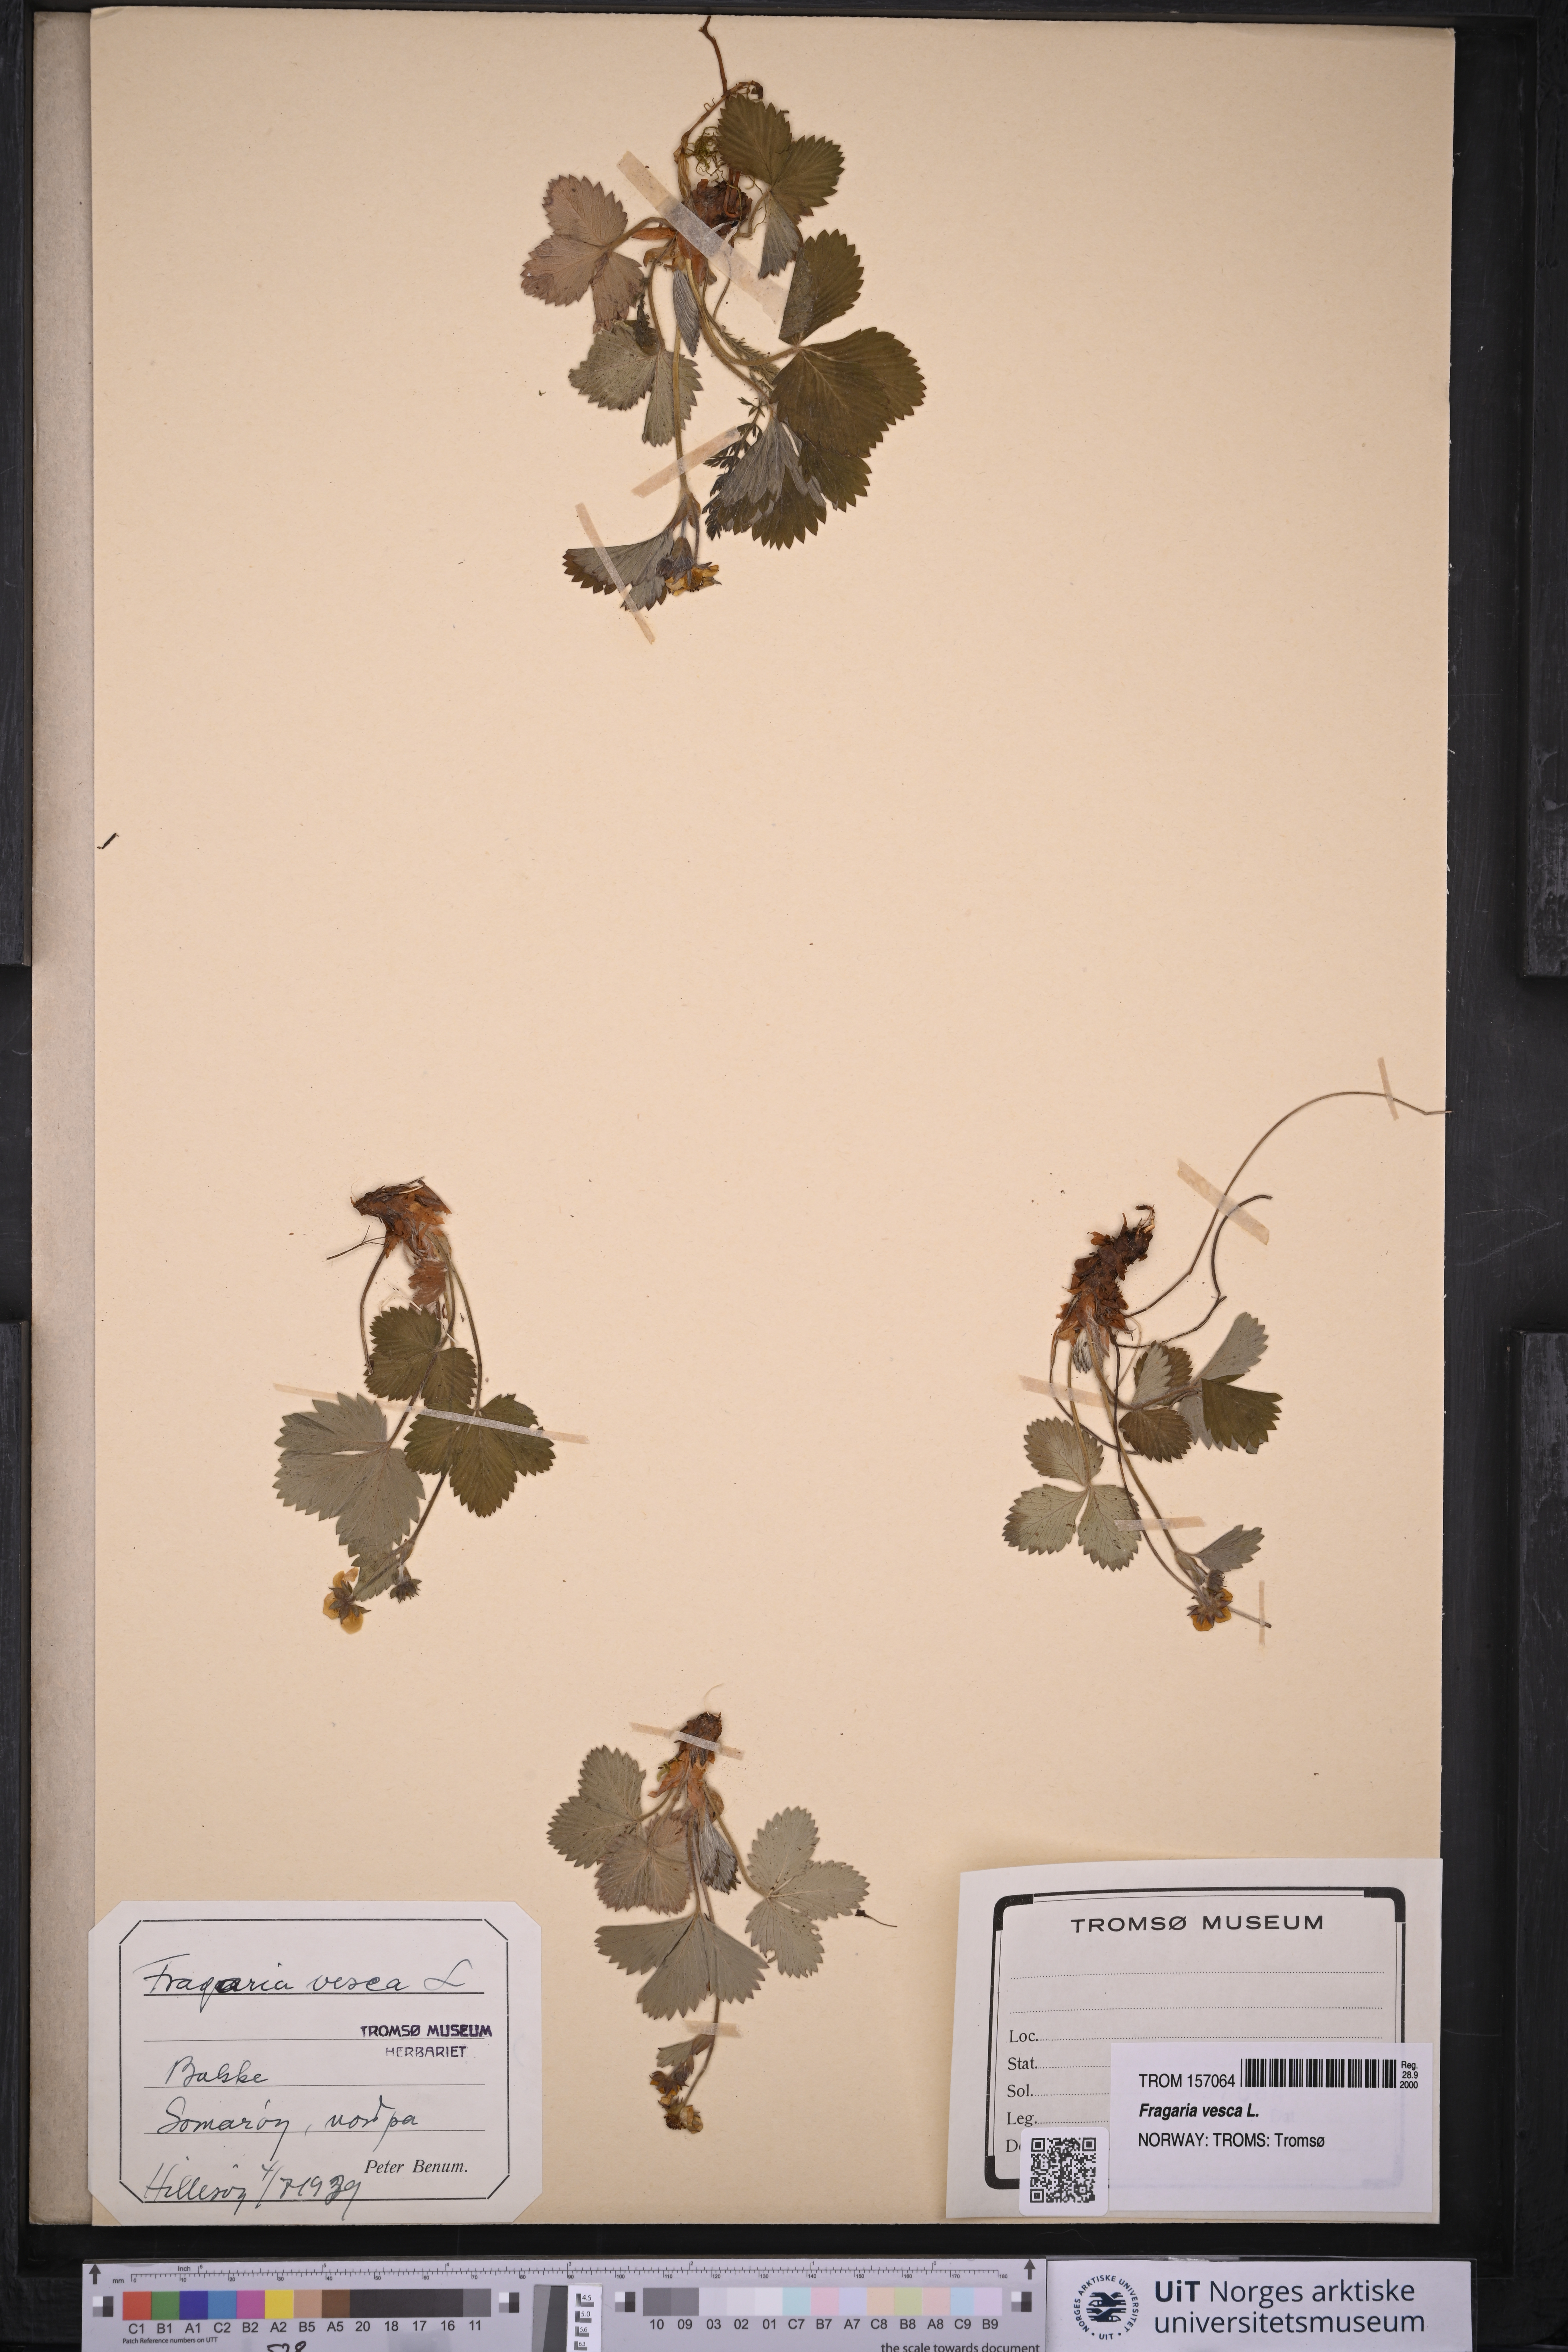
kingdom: Plantae
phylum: Tracheophyta
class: Magnoliopsida
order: Rosales
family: Rosaceae
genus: Fragaria
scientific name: Fragaria vesca
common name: Wild strawberry
